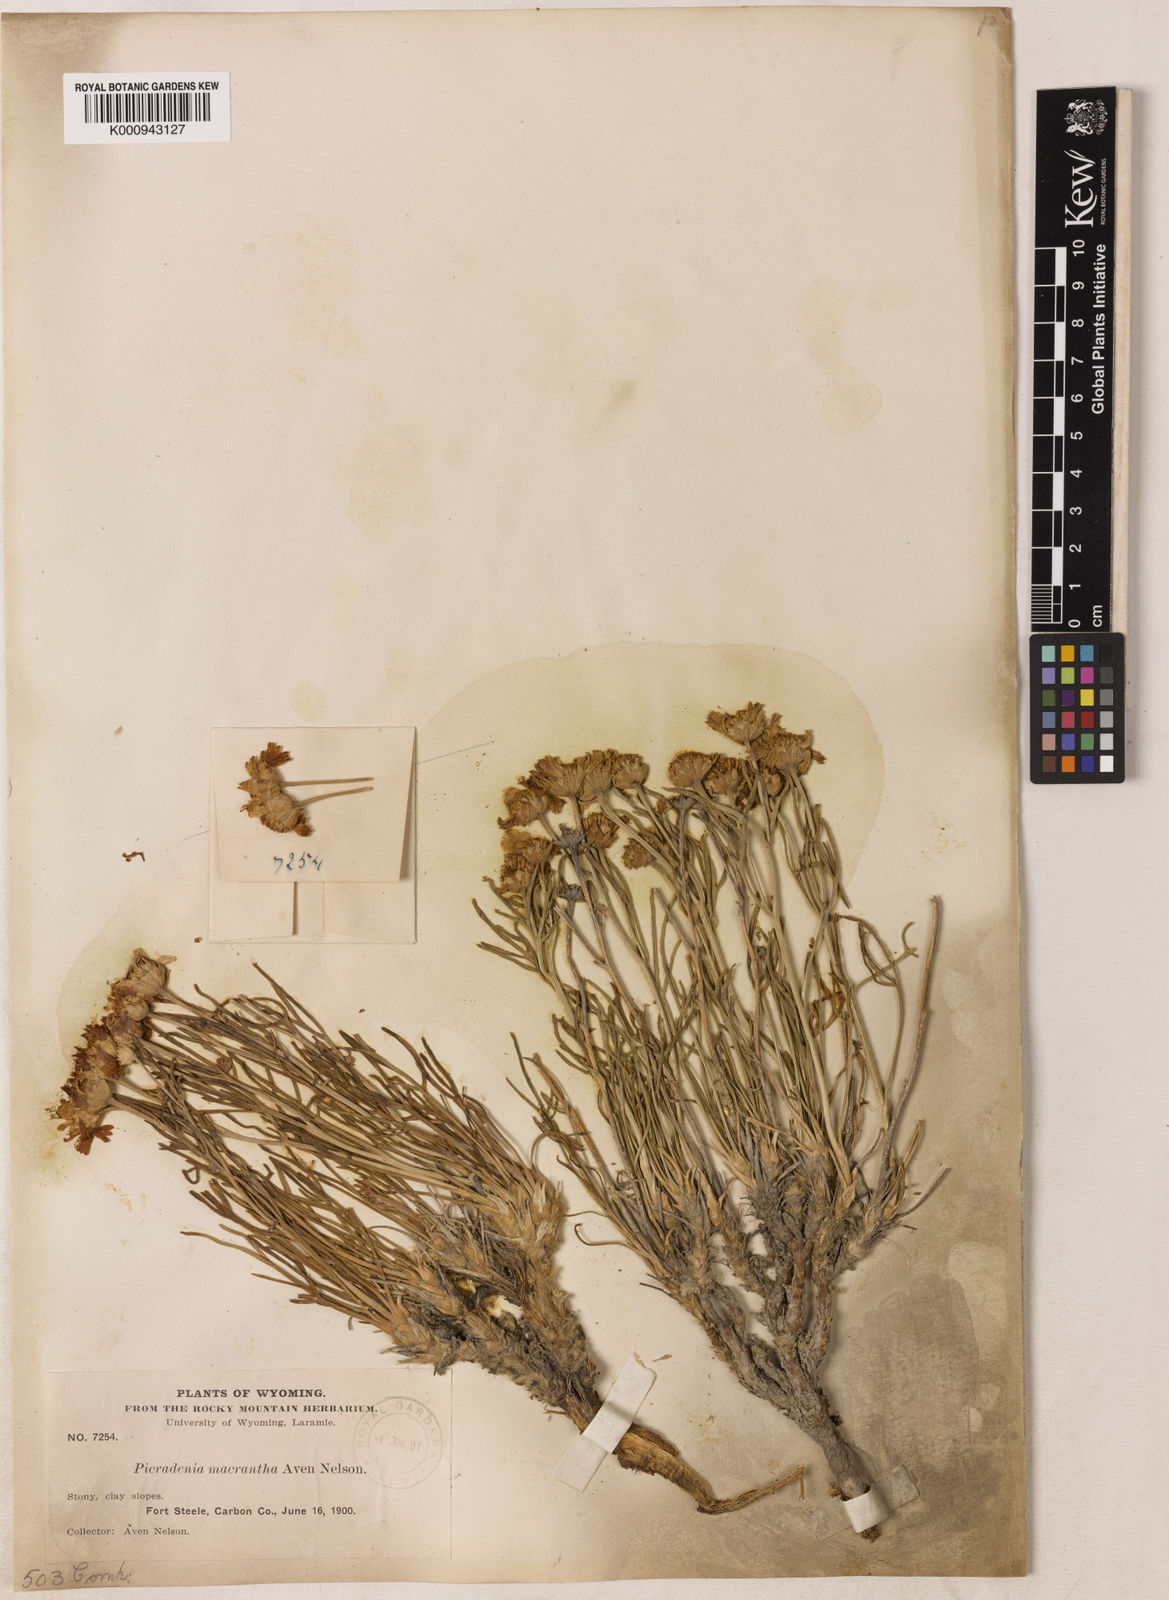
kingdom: Plantae
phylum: Tracheophyta
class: Magnoliopsida
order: Asterales
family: Asteraceae
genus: Hymenoxys
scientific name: Hymenoxys richardsonii
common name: Pingue rubberweed
